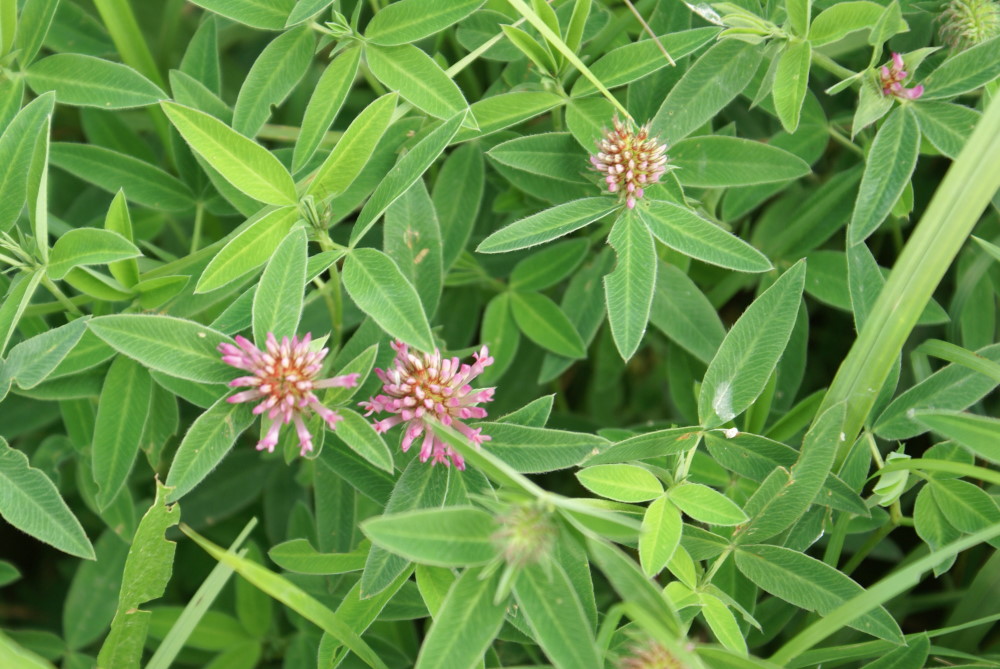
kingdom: Plantae
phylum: Tracheophyta
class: Magnoliopsida
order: Fabales
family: Fabaceae
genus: Trifolium
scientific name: Trifolium medium
